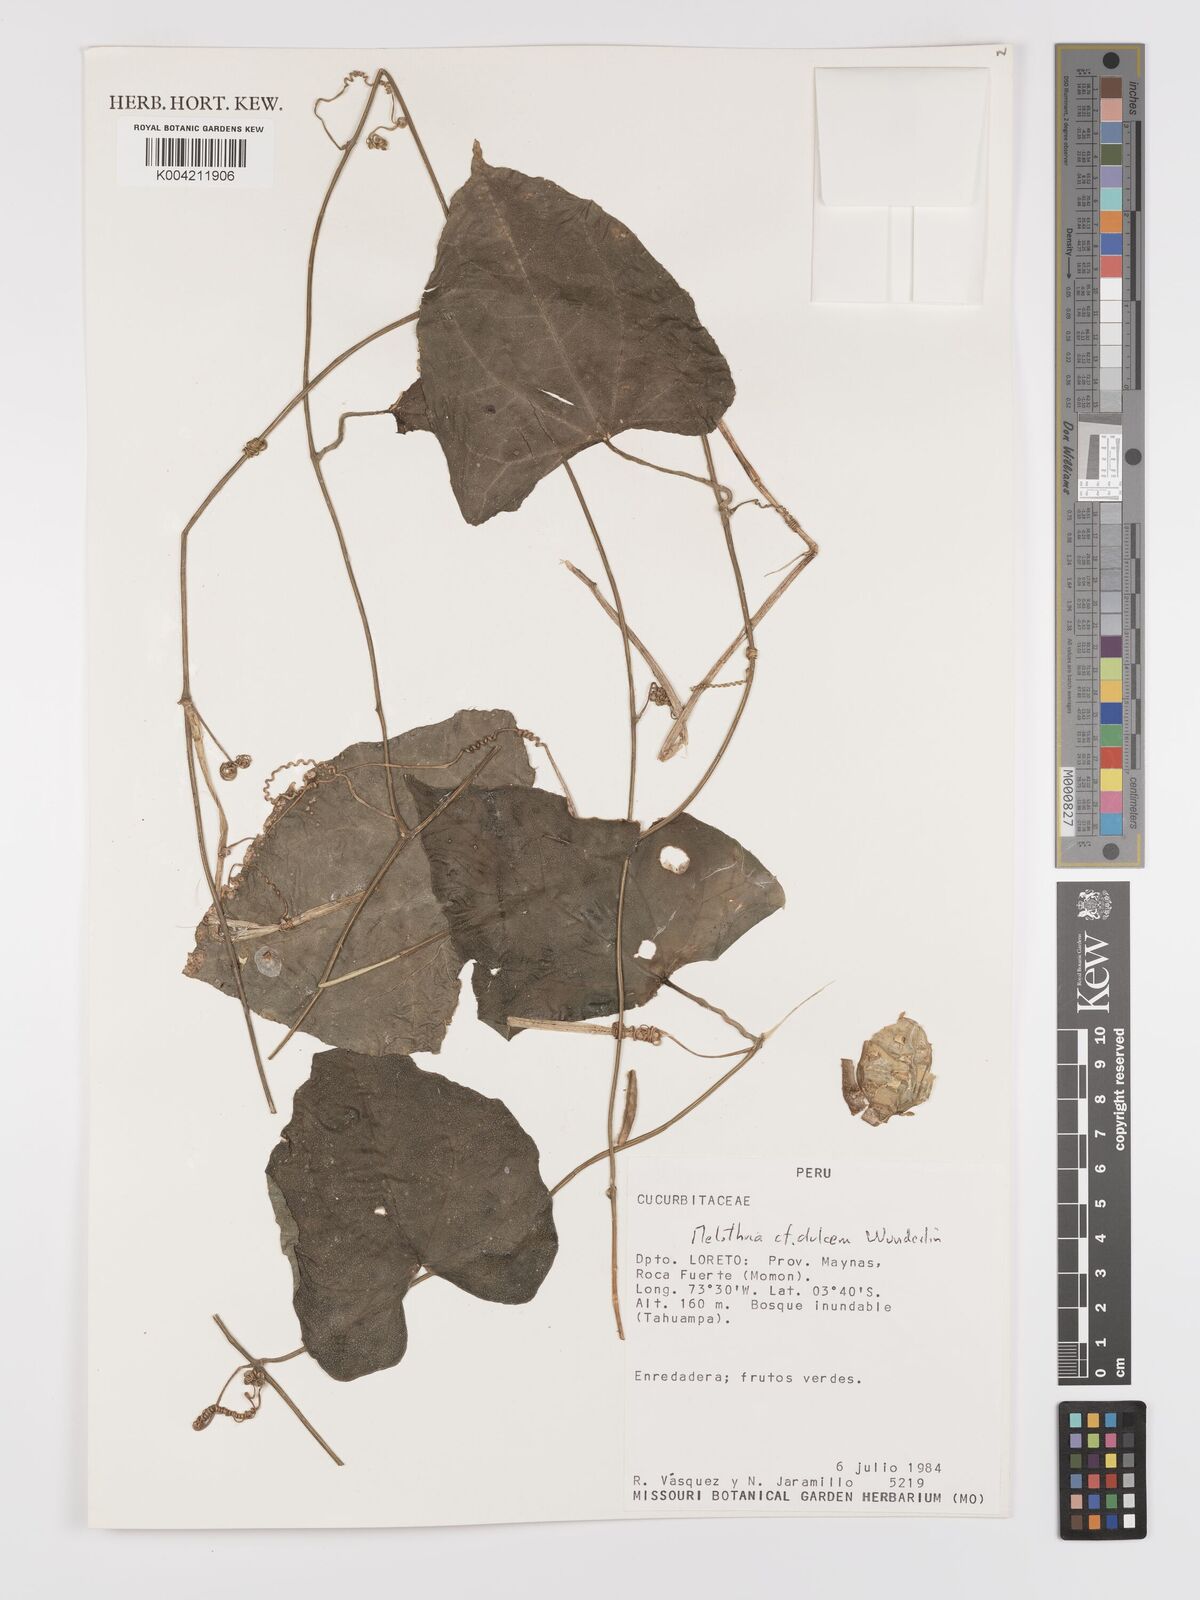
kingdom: Plantae
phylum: Tracheophyta
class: Magnoliopsida
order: Cucurbitales
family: Cucurbitaceae
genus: Melothria
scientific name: Melothria dulcis
